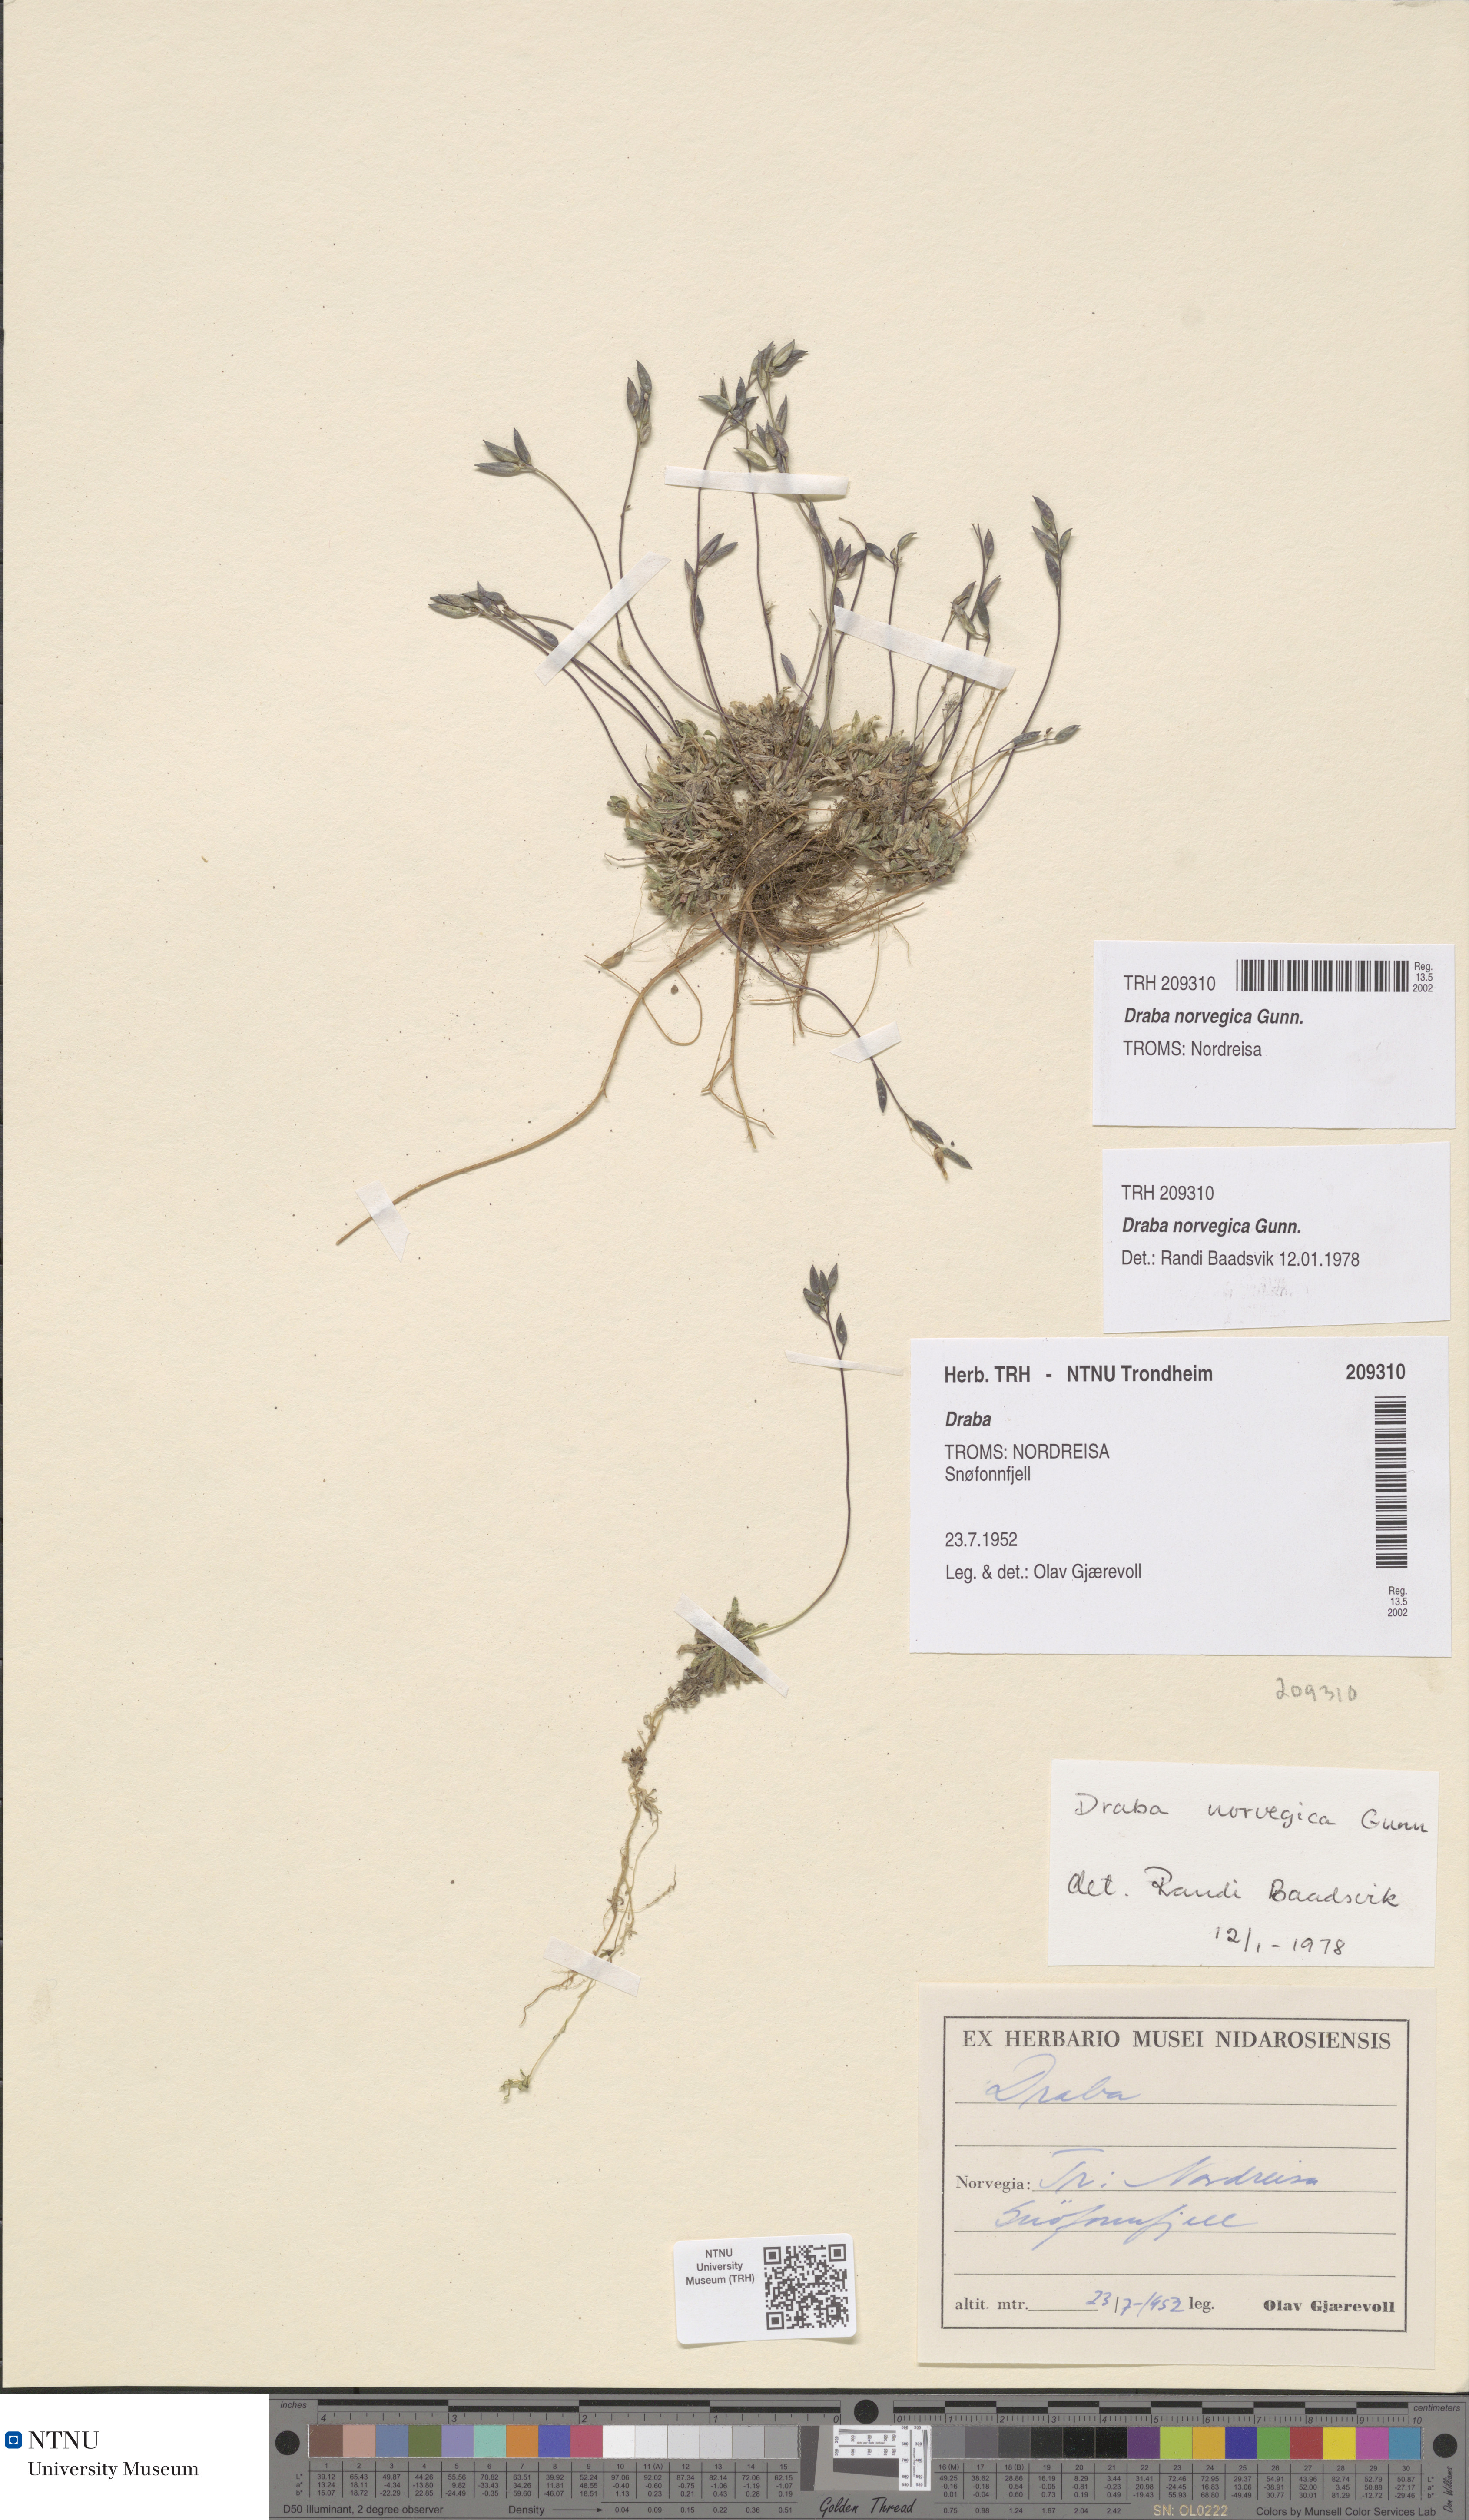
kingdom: Plantae
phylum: Tracheophyta
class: Magnoliopsida
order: Brassicales
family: Brassicaceae
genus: Draba
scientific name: Draba norvegica
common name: Rock whitlowgrass
